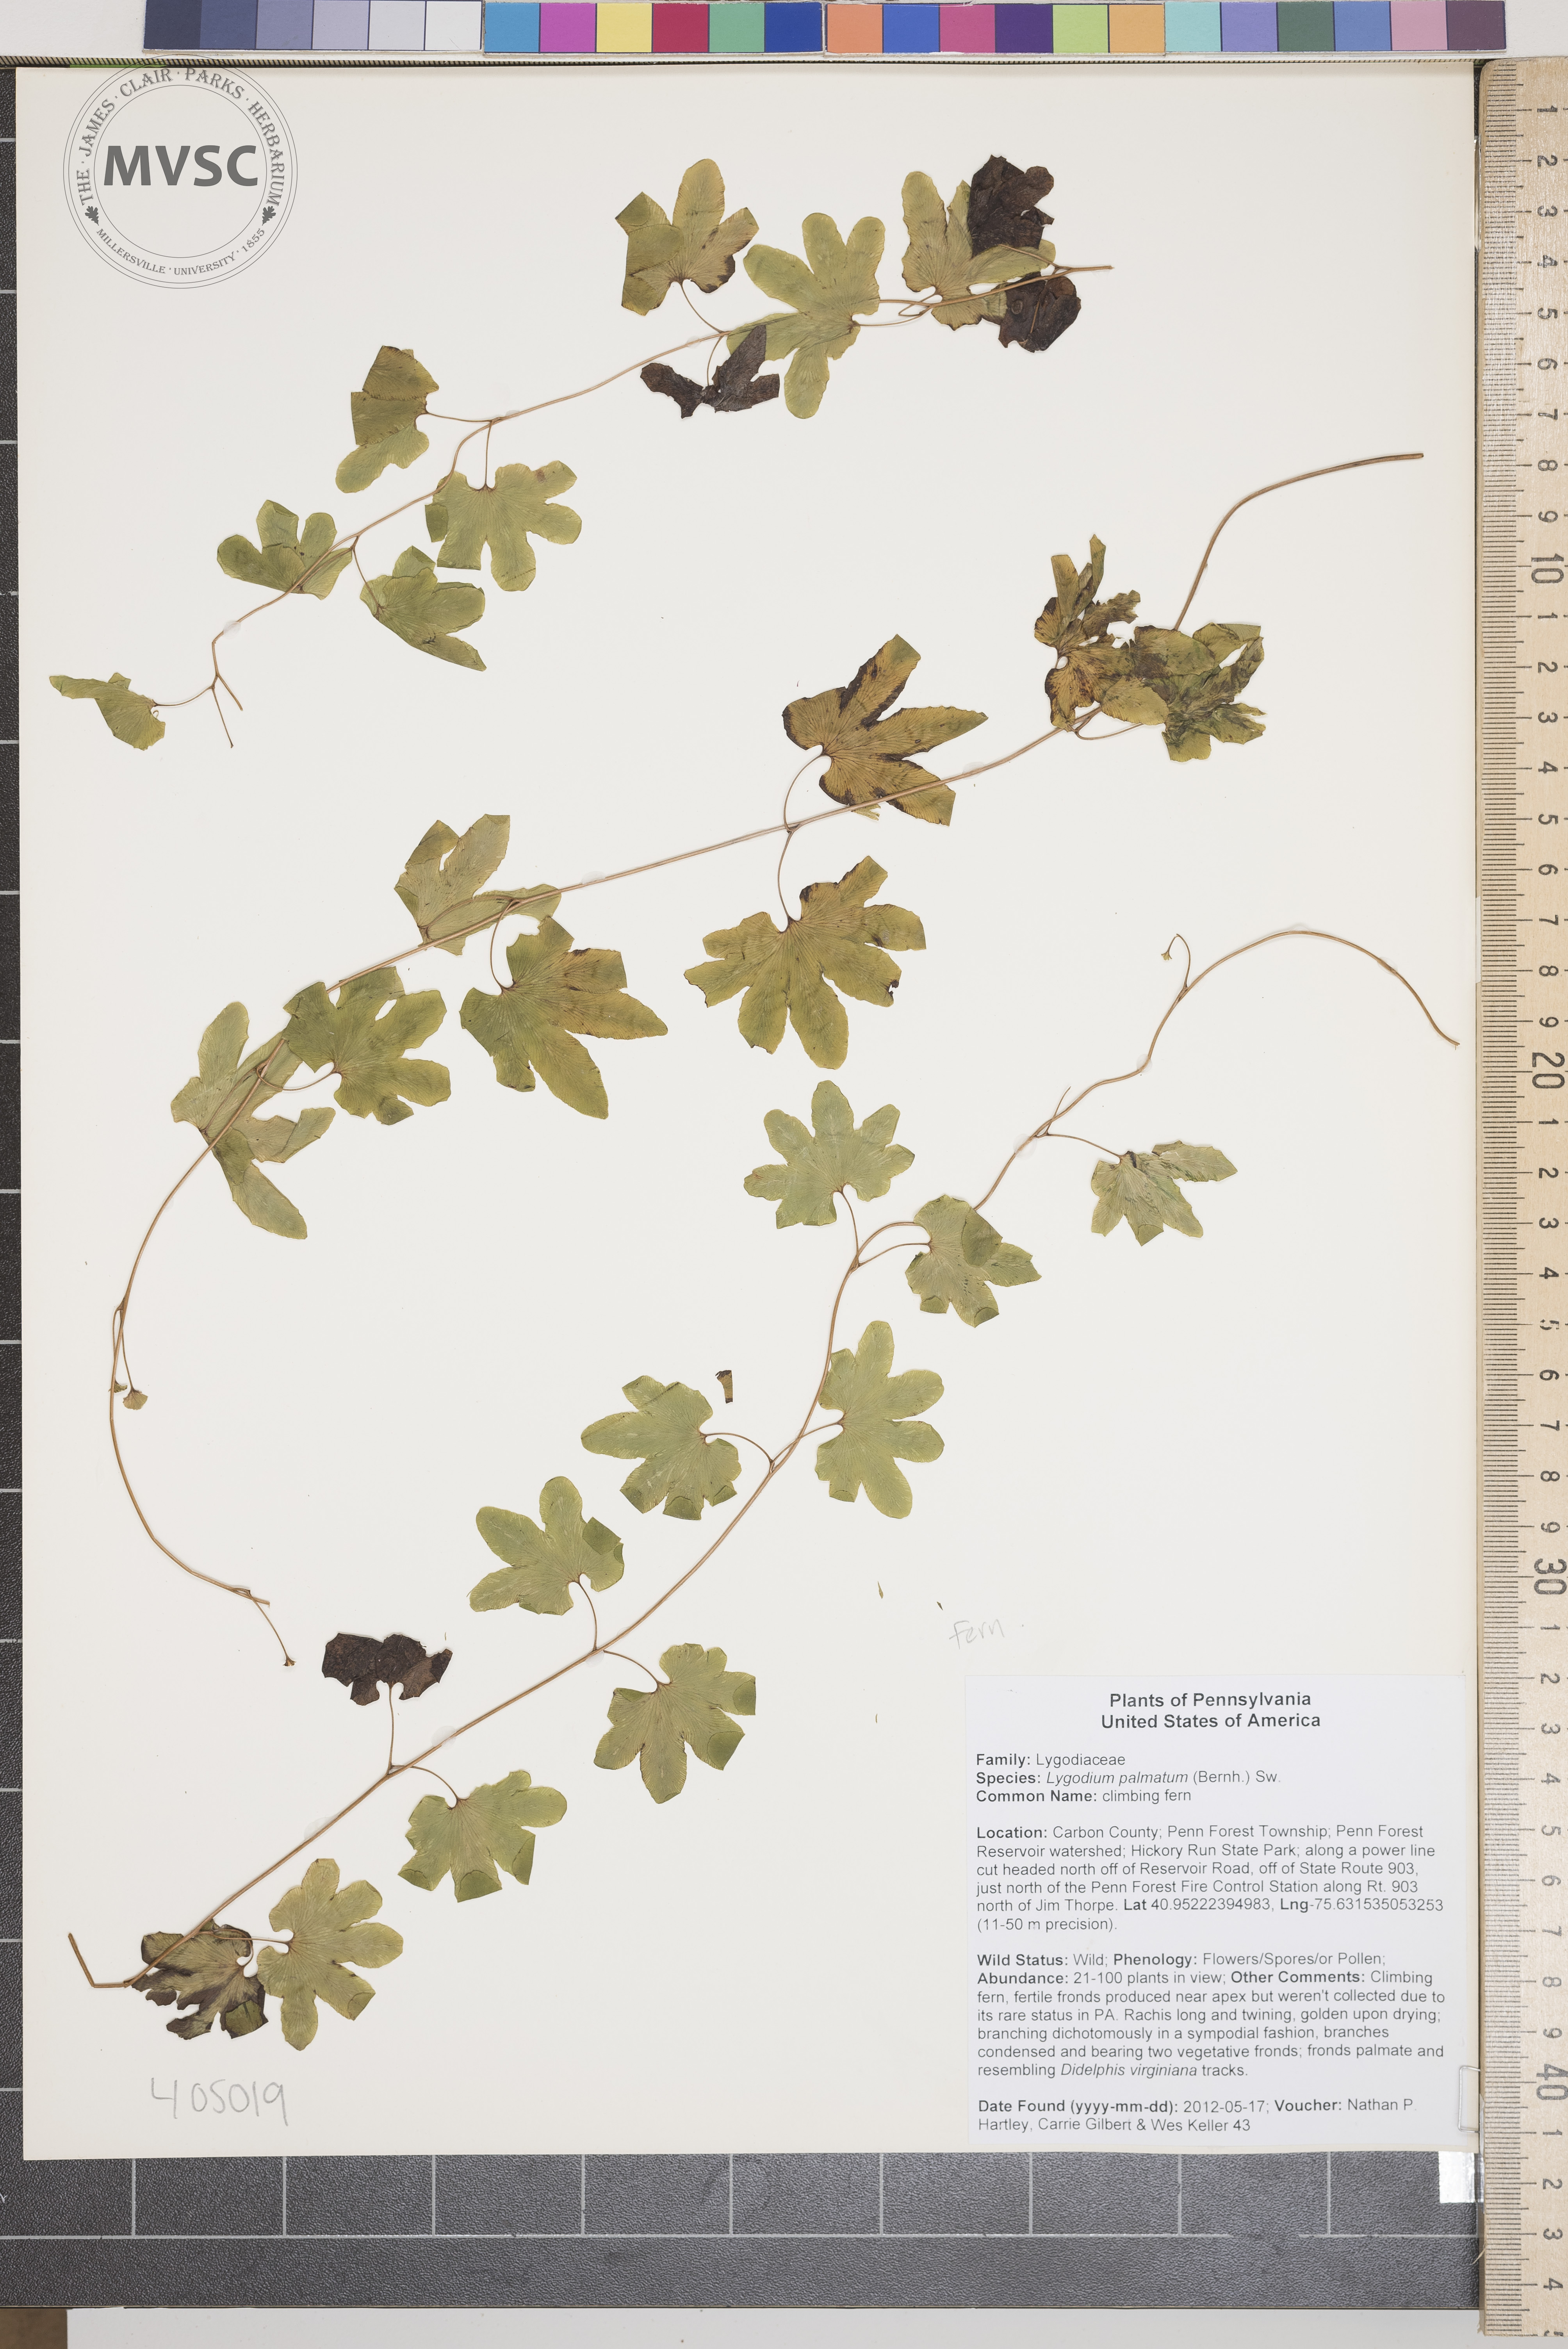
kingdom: Plantae
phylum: Tracheophyta
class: Polypodiopsida
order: Schizaeales
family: Lygodiaceae
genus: Lygodium
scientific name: Lygodium palmatum
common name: climbing fern
